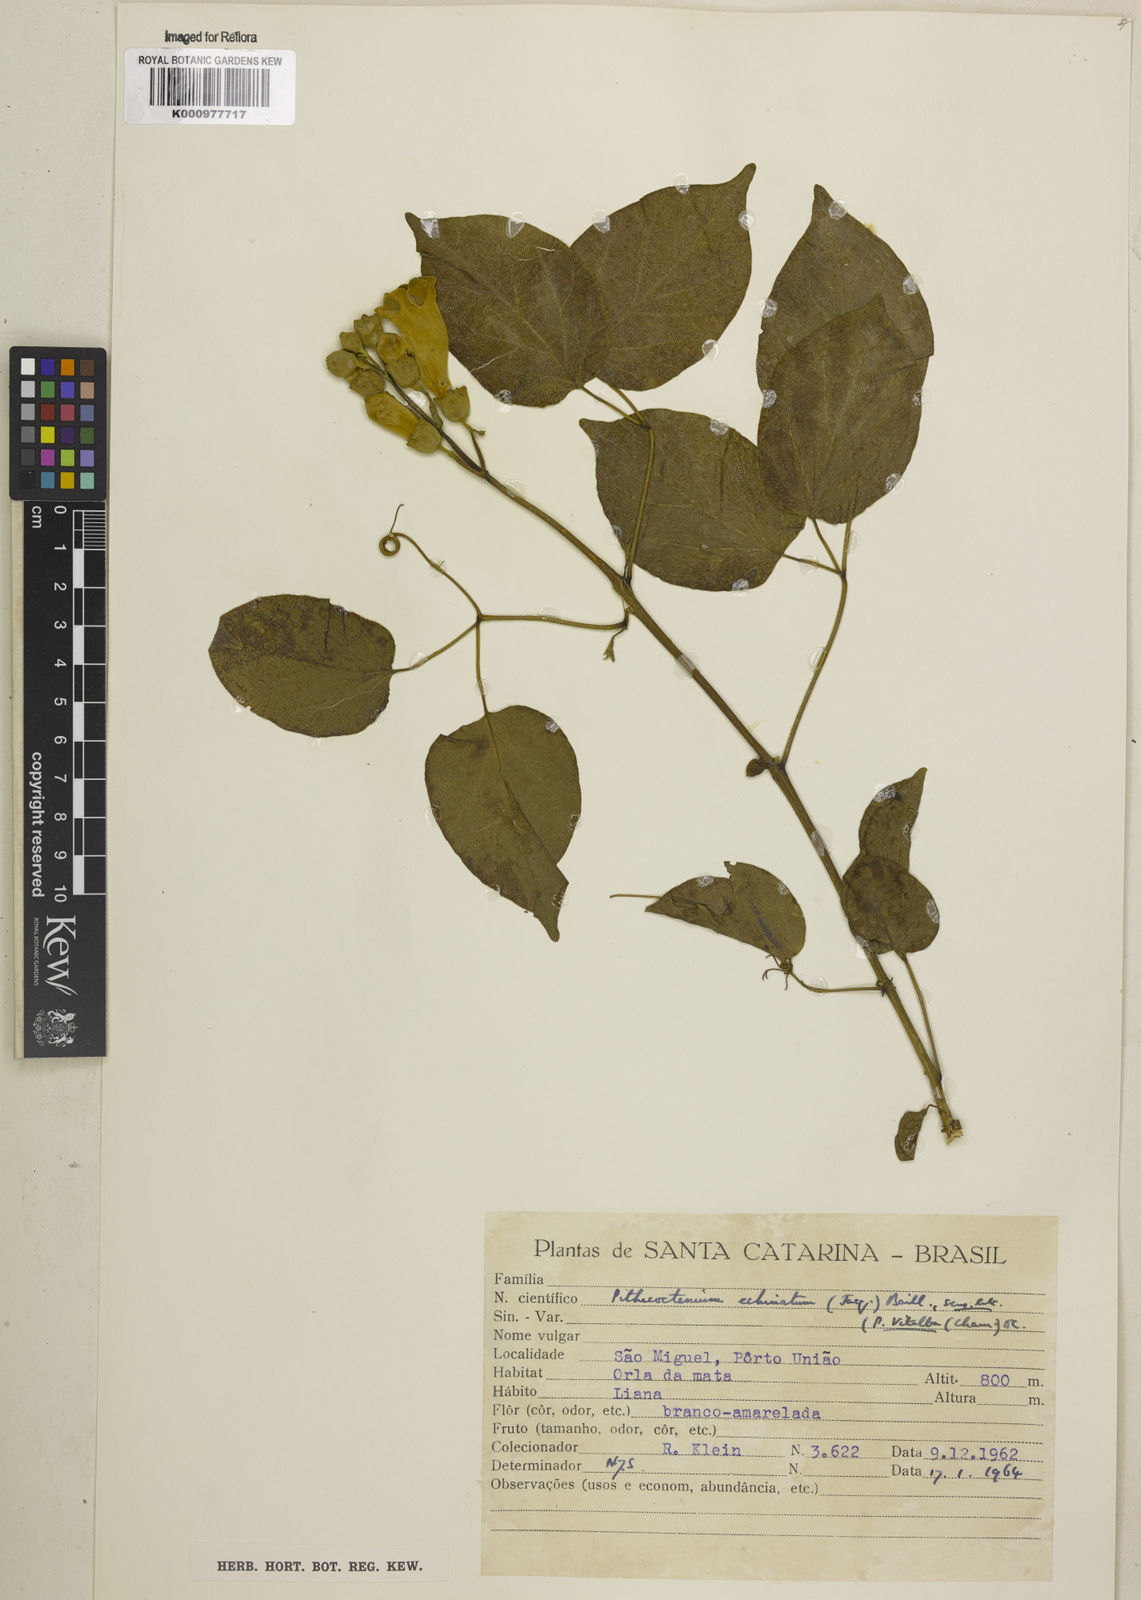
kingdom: Plantae
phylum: Tracheophyta
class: Magnoliopsida
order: Lamiales
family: Bignoniaceae
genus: Amphilophium
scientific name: Amphilophium crucigerum
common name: Monkey comb
